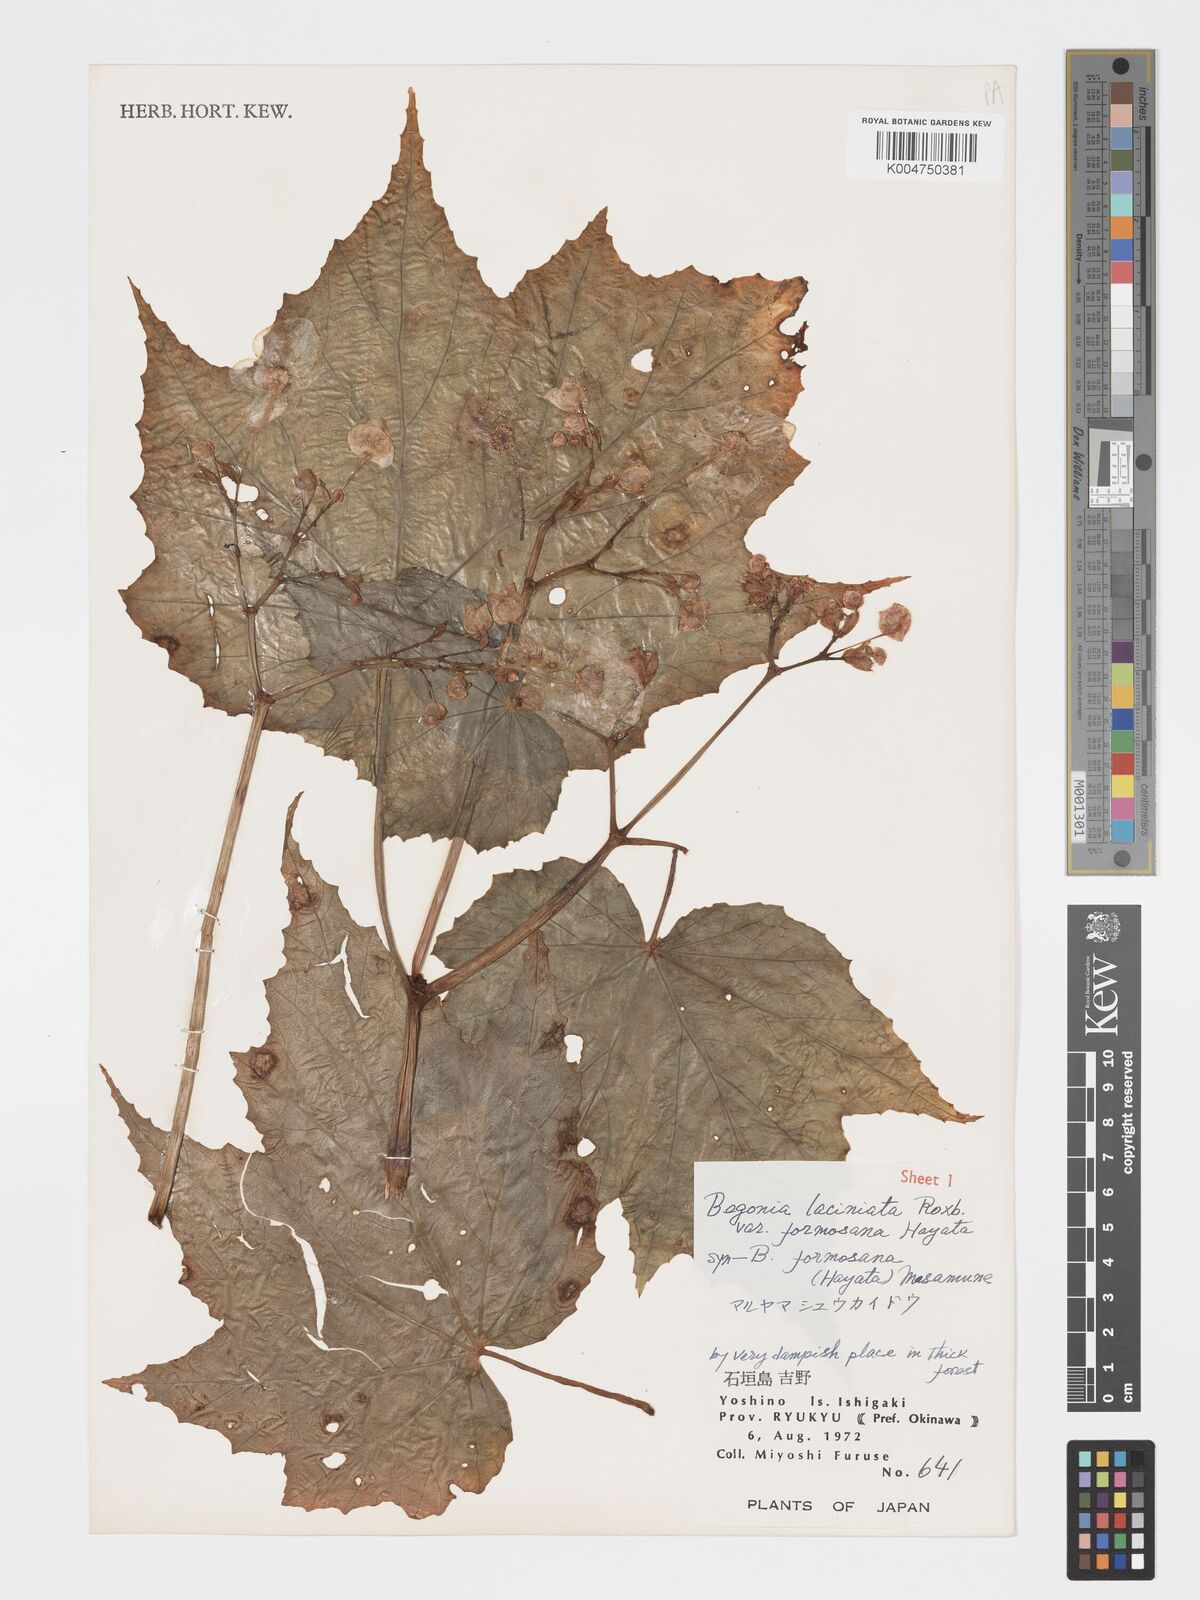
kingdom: Plantae
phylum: Tracheophyta
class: Magnoliopsida
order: Cucurbitales
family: Begoniaceae
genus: Begonia
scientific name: Begonia palmata
